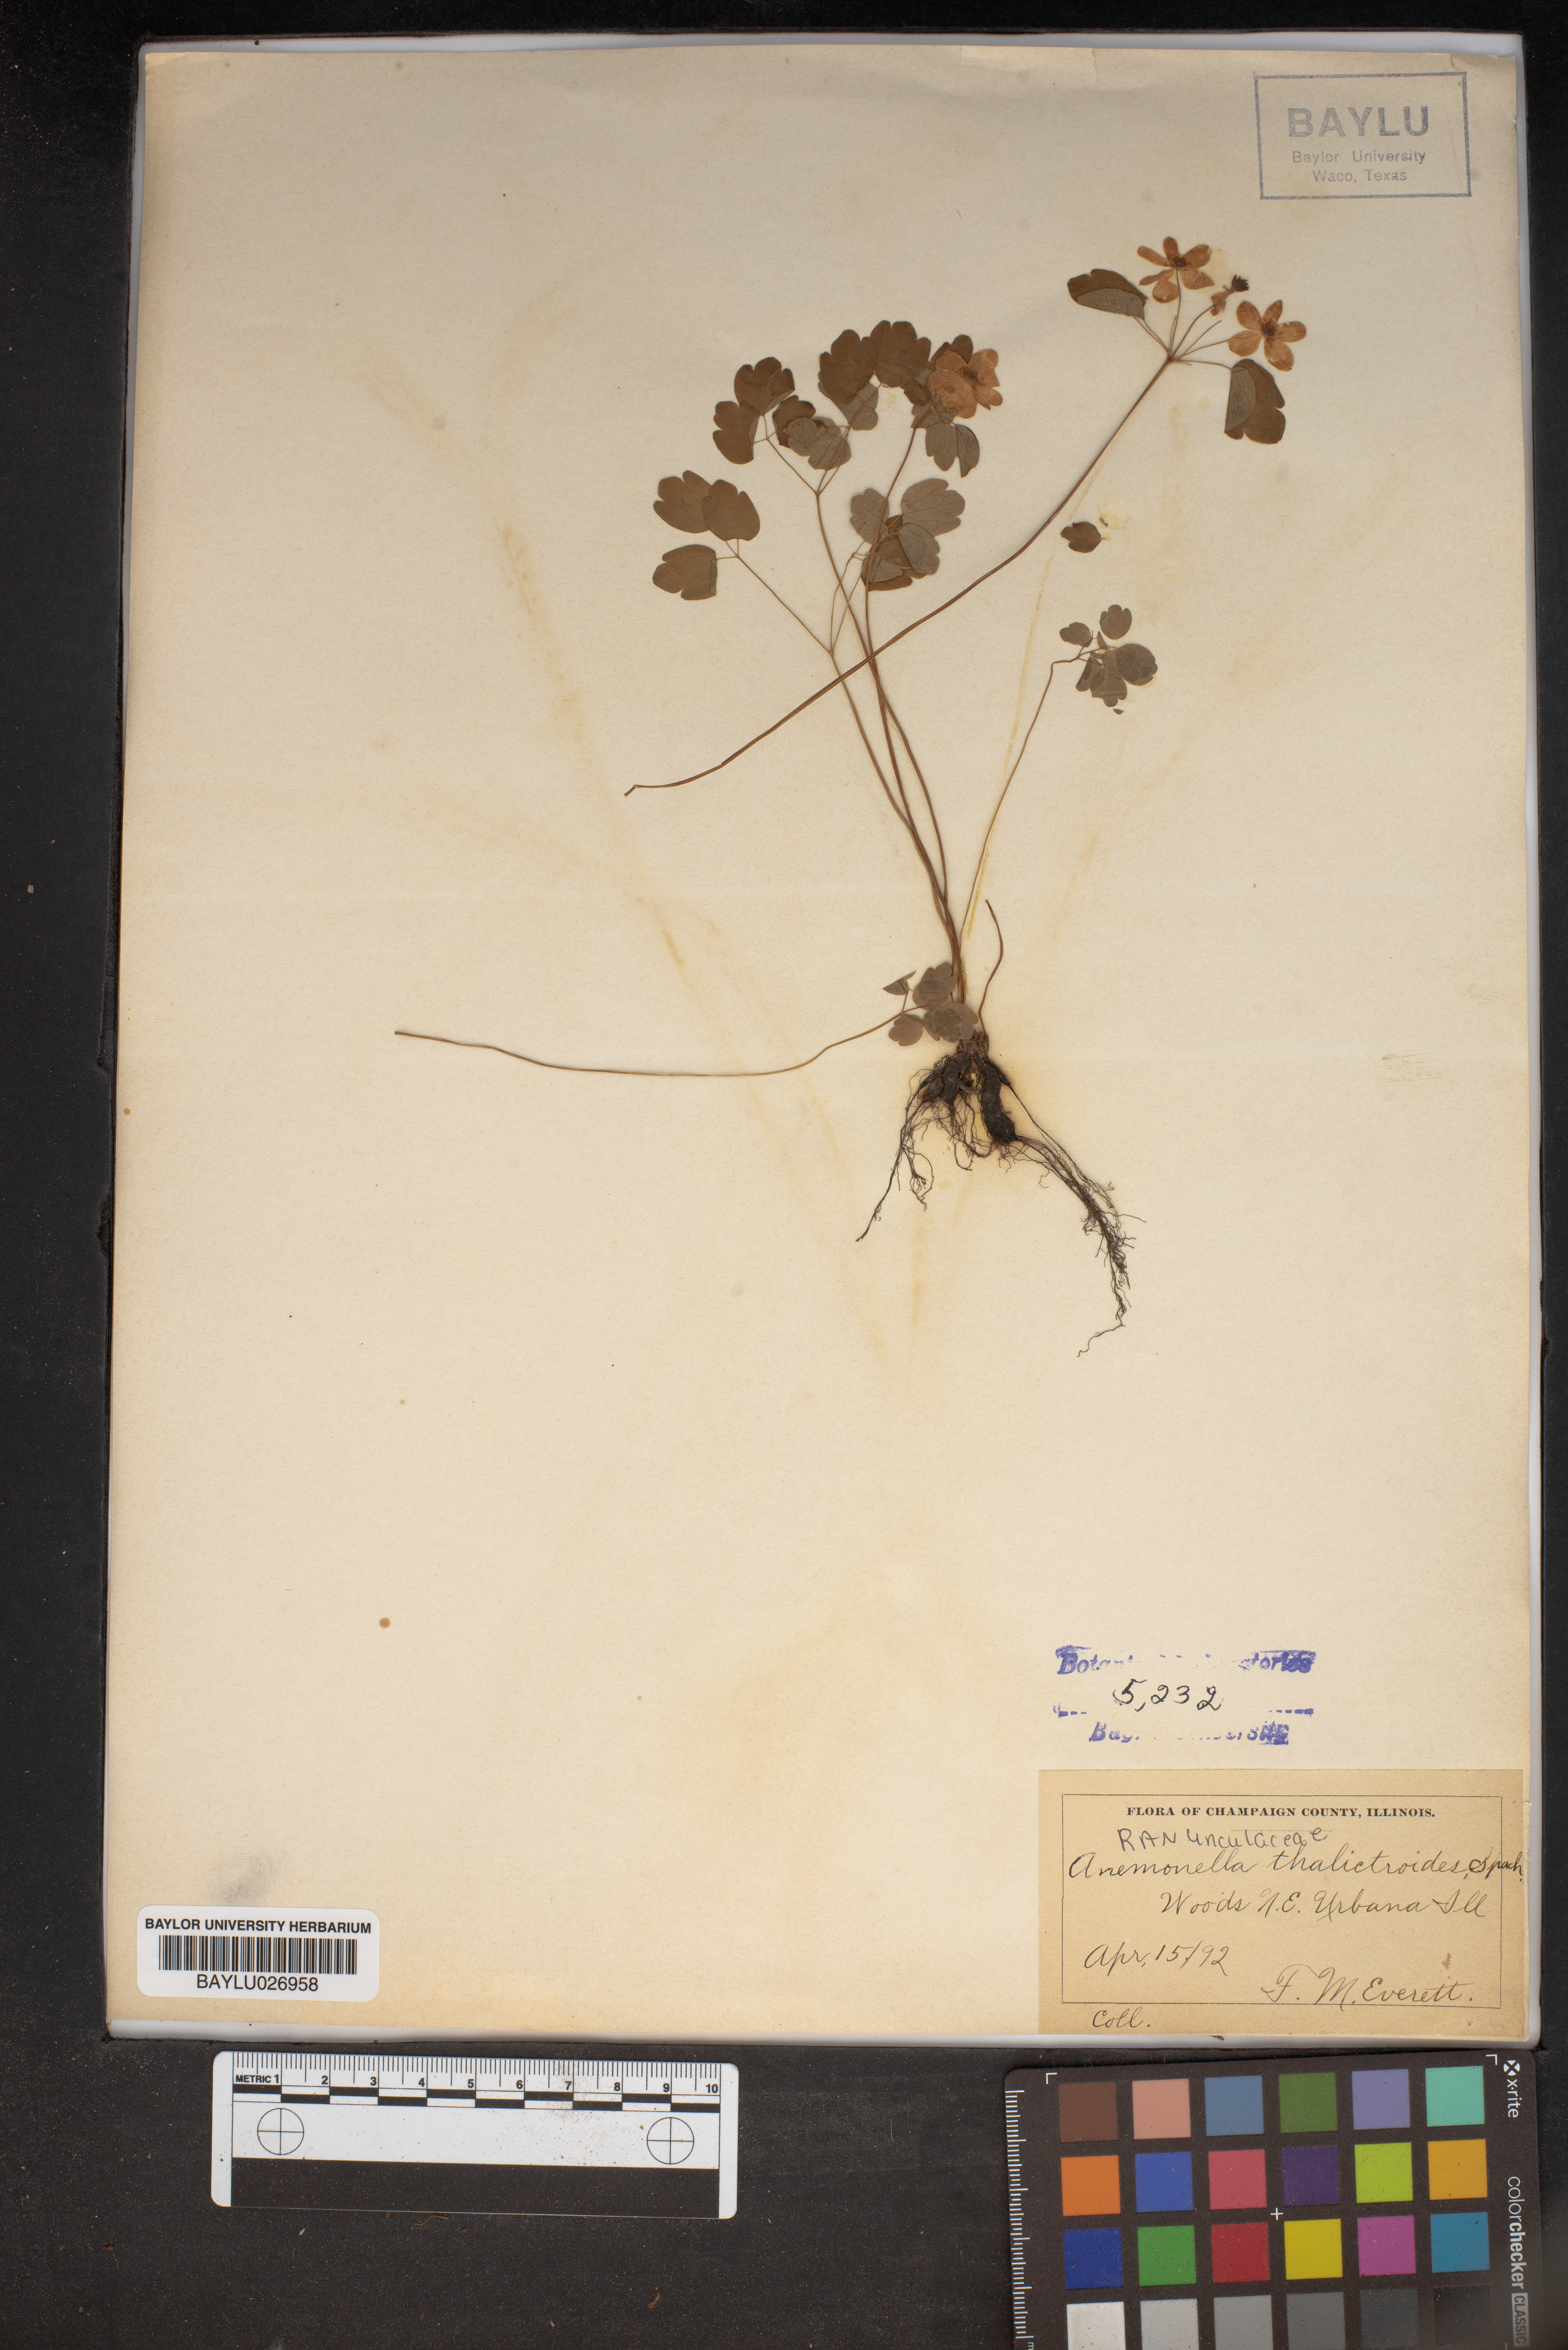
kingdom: Plantae
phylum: Tracheophyta
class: Magnoliopsida
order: Ranunculales
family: Ranunculaceae
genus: Thalictrum
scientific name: Thalictrum thalictroides
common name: Rue-anemone
